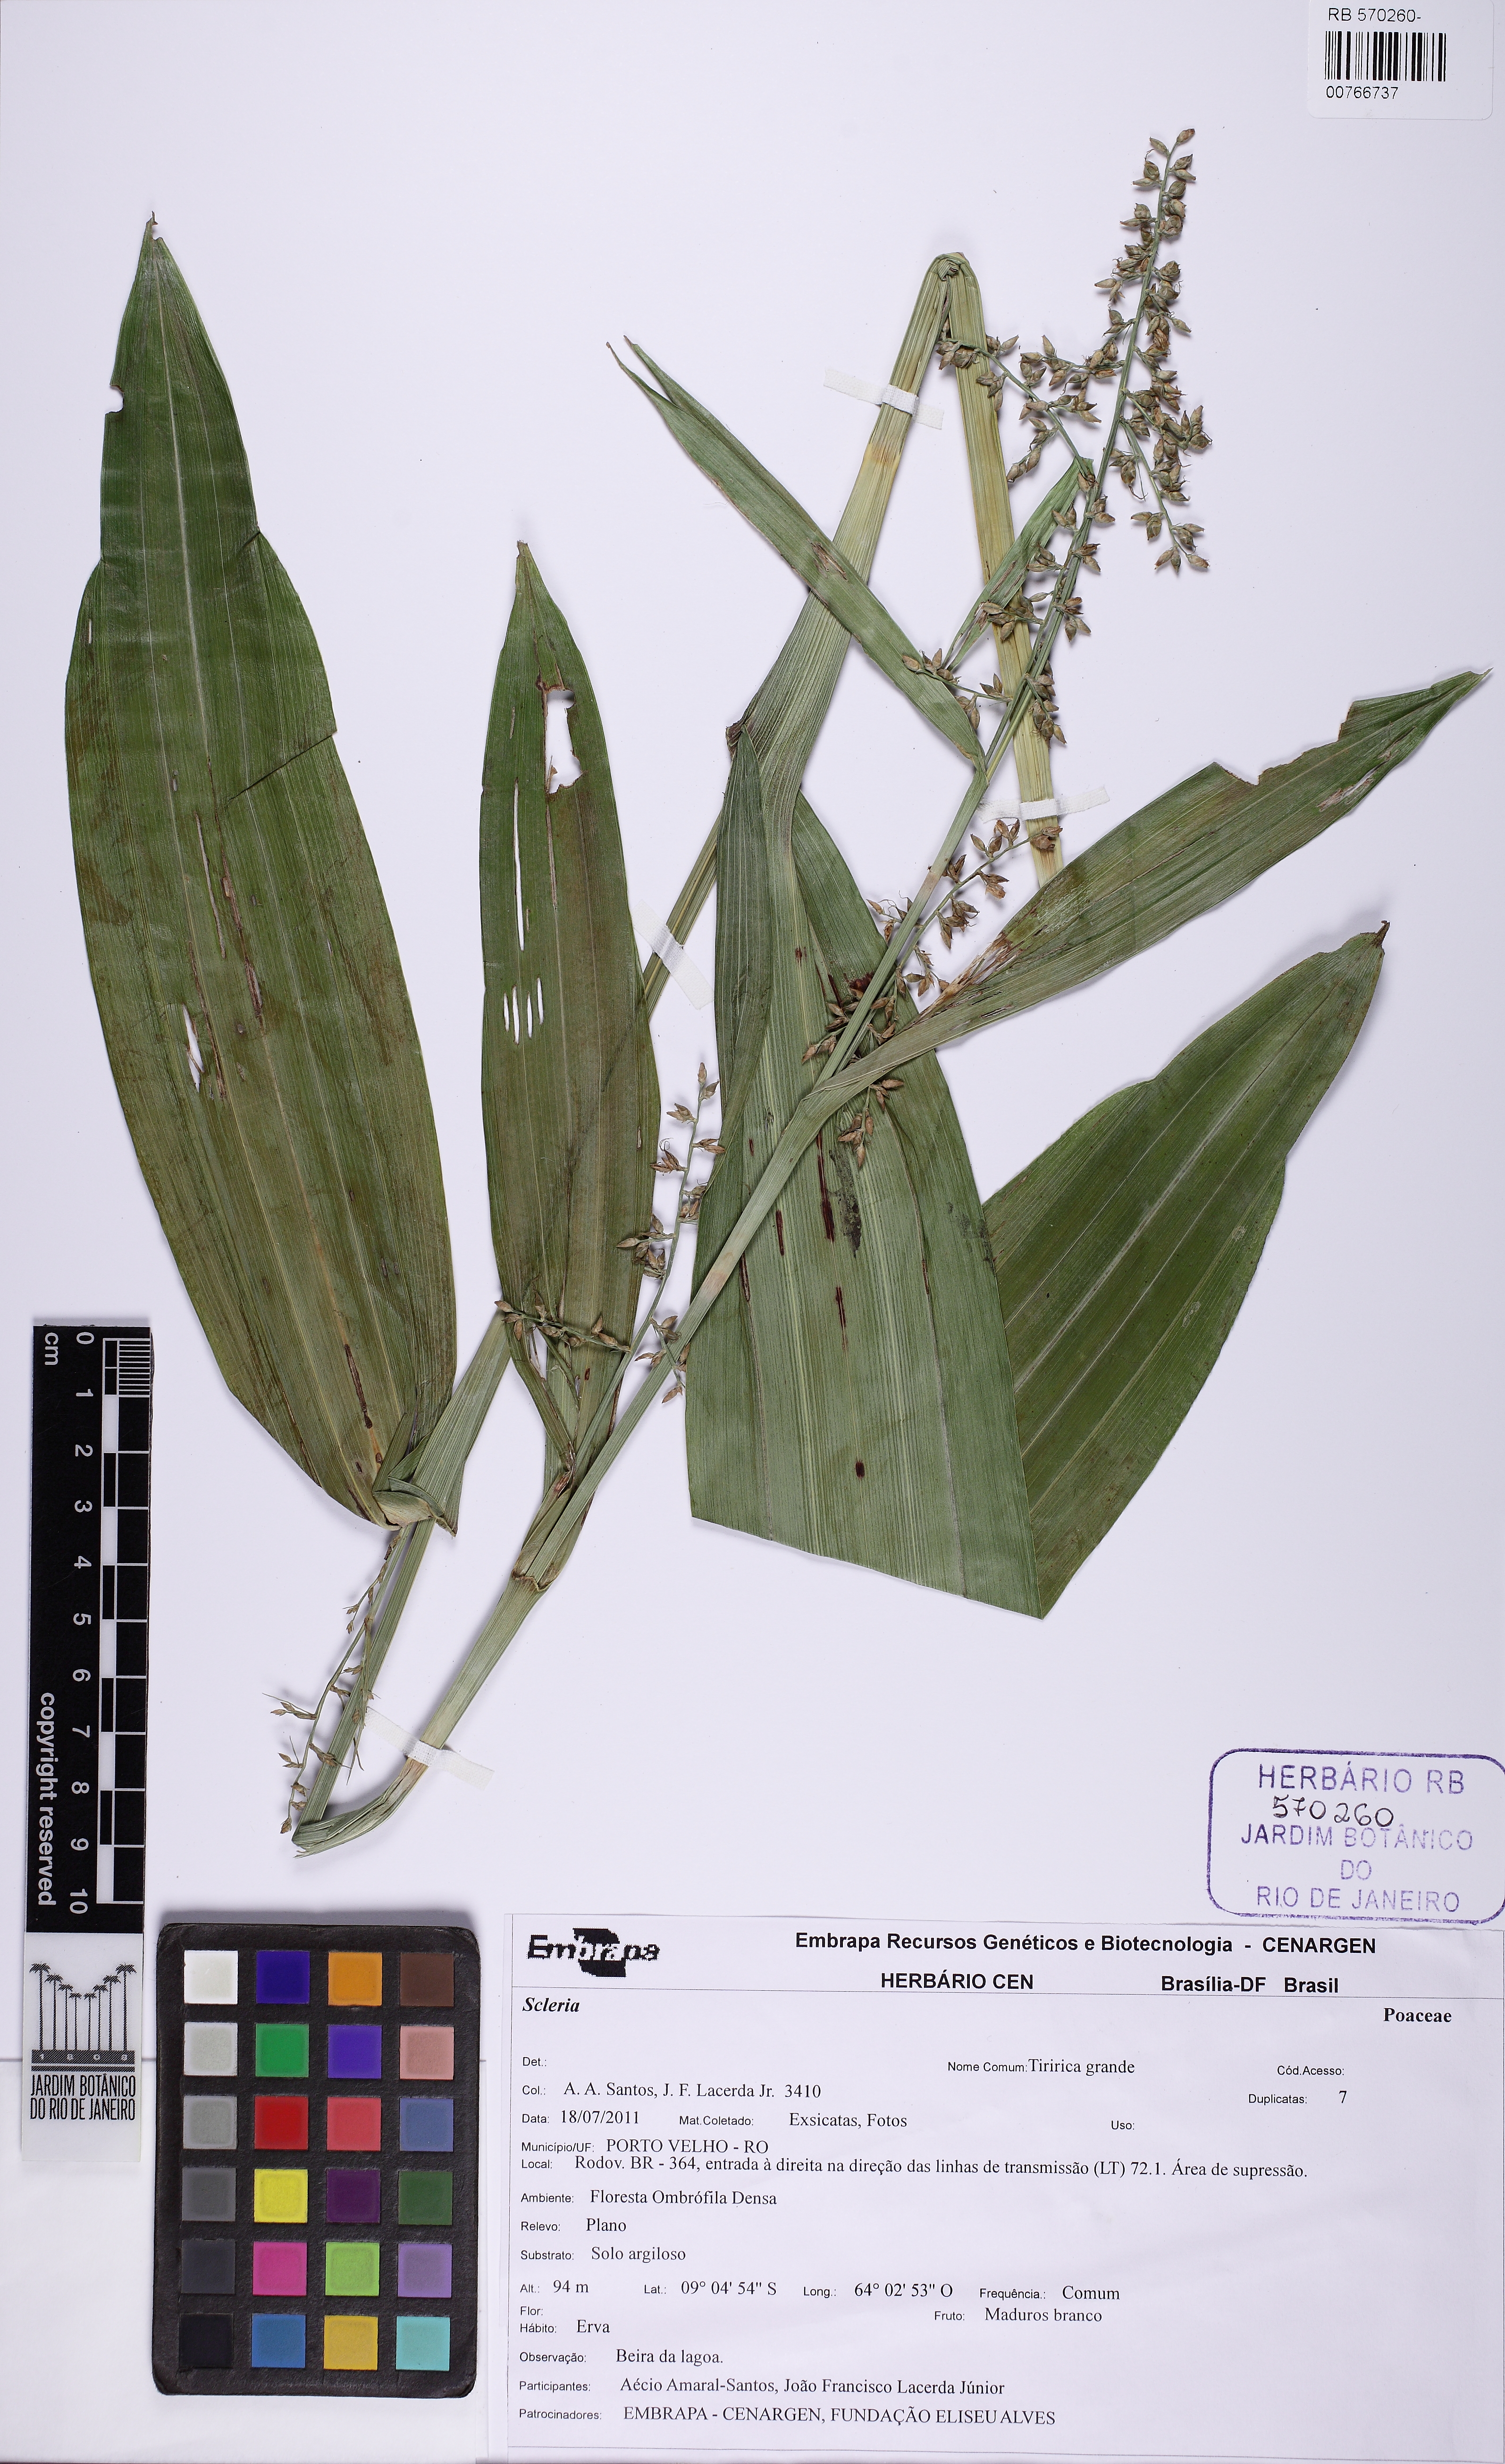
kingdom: Plantae
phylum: Tracheophyta
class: Liliopsida
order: Poales
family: Cyperaceae
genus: Scleria
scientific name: Scleria
